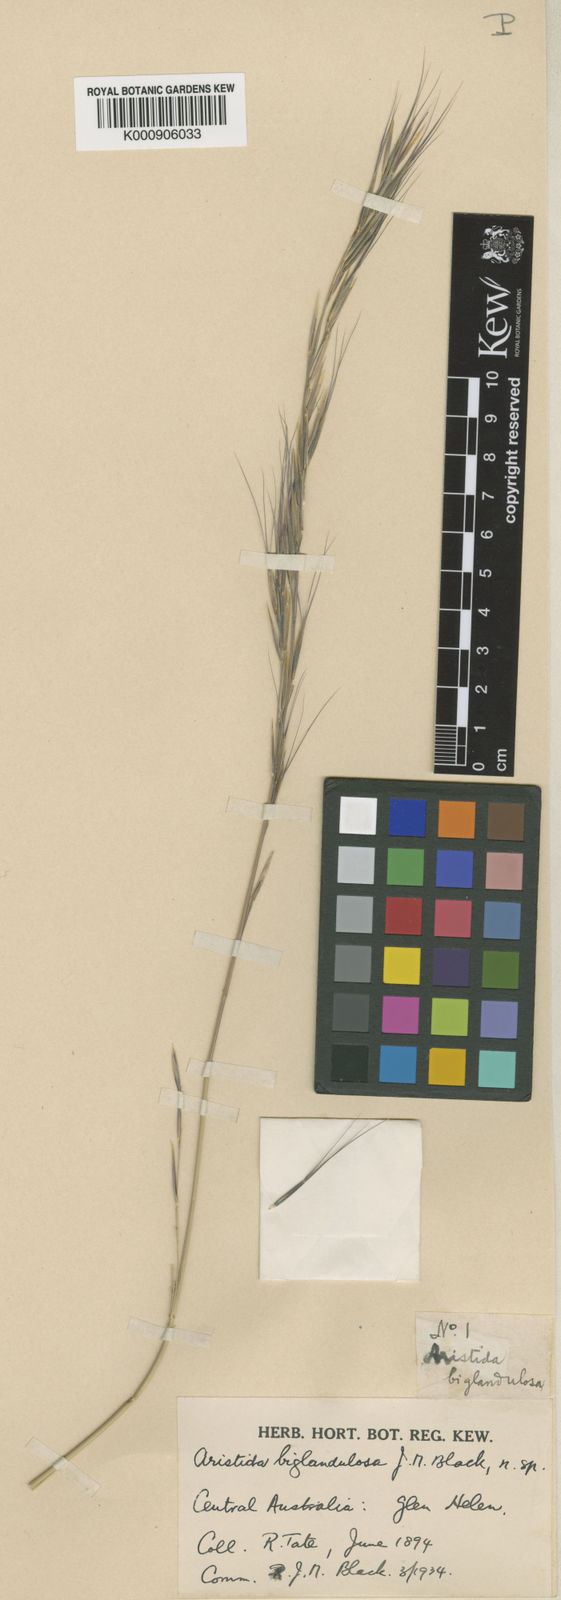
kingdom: Plantae
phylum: Tracheophyta
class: Liliopsida
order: Poales
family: Poaceae
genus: Aristida
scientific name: Aristida biglandulosa
